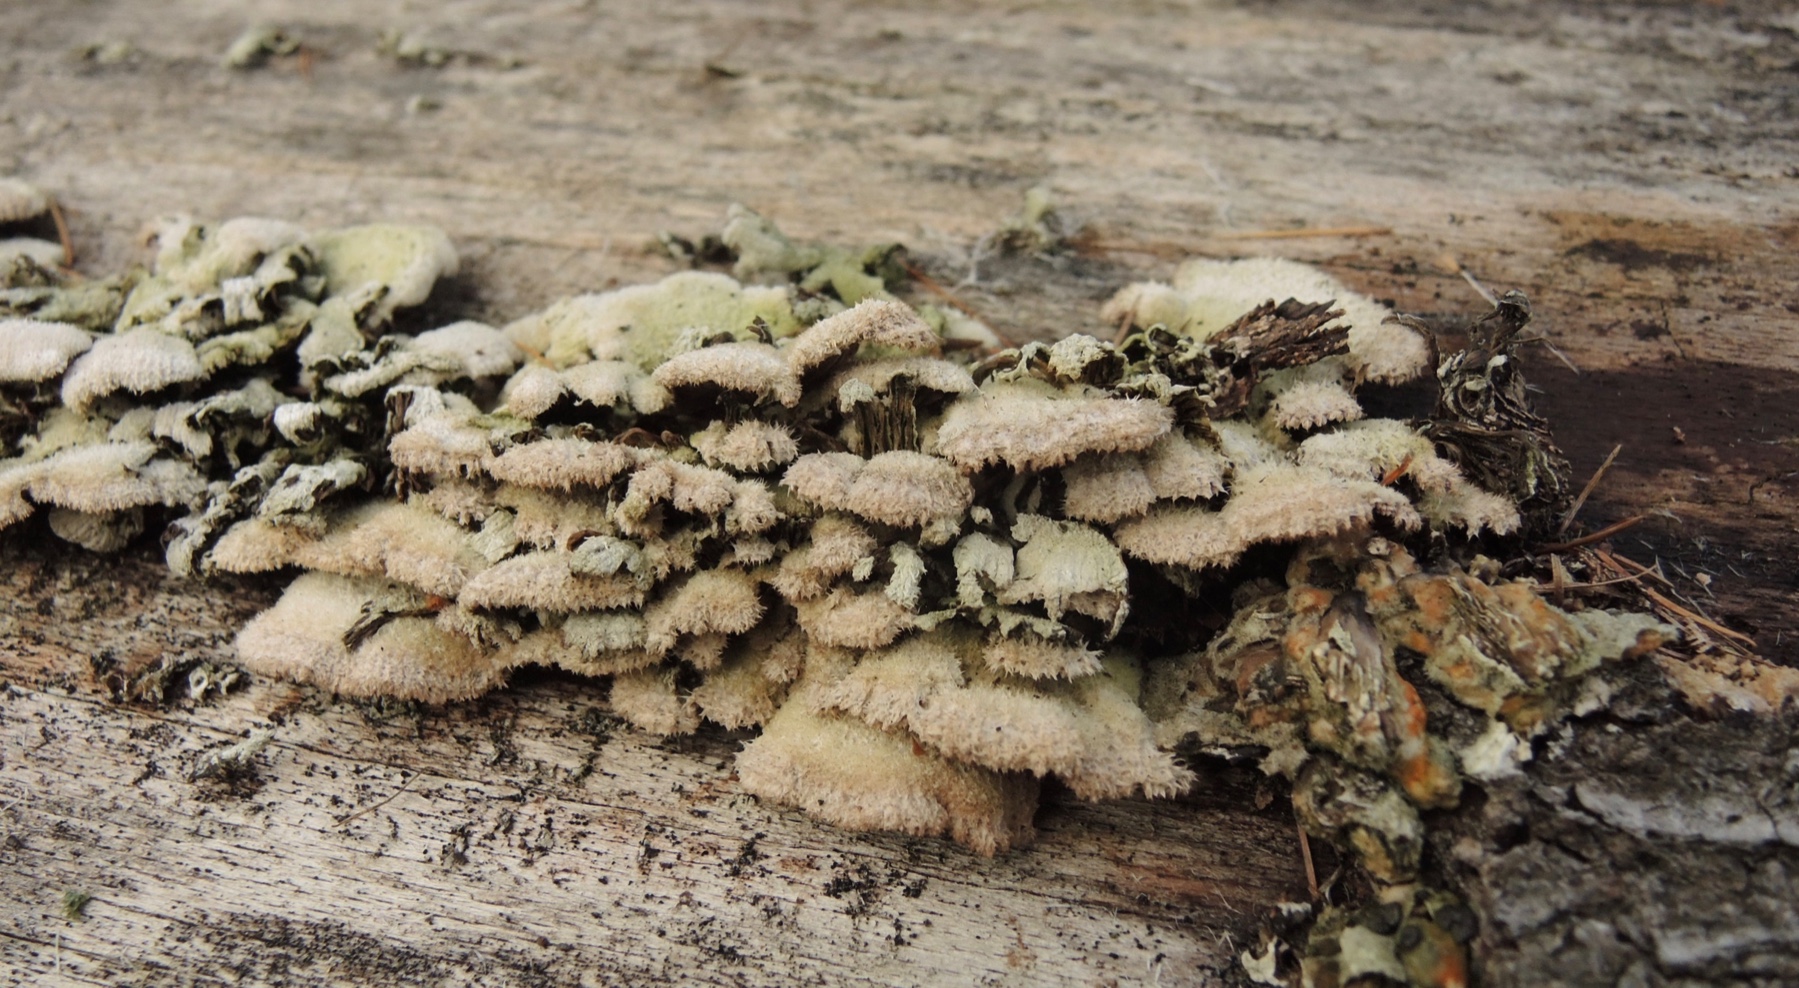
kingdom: Fungi
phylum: Basidiomycota
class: Agaricomycetes
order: Agaricales
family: Schizophyllaceae
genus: Schizophyllum
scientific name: Schizophyllum commune
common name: kløvblad
